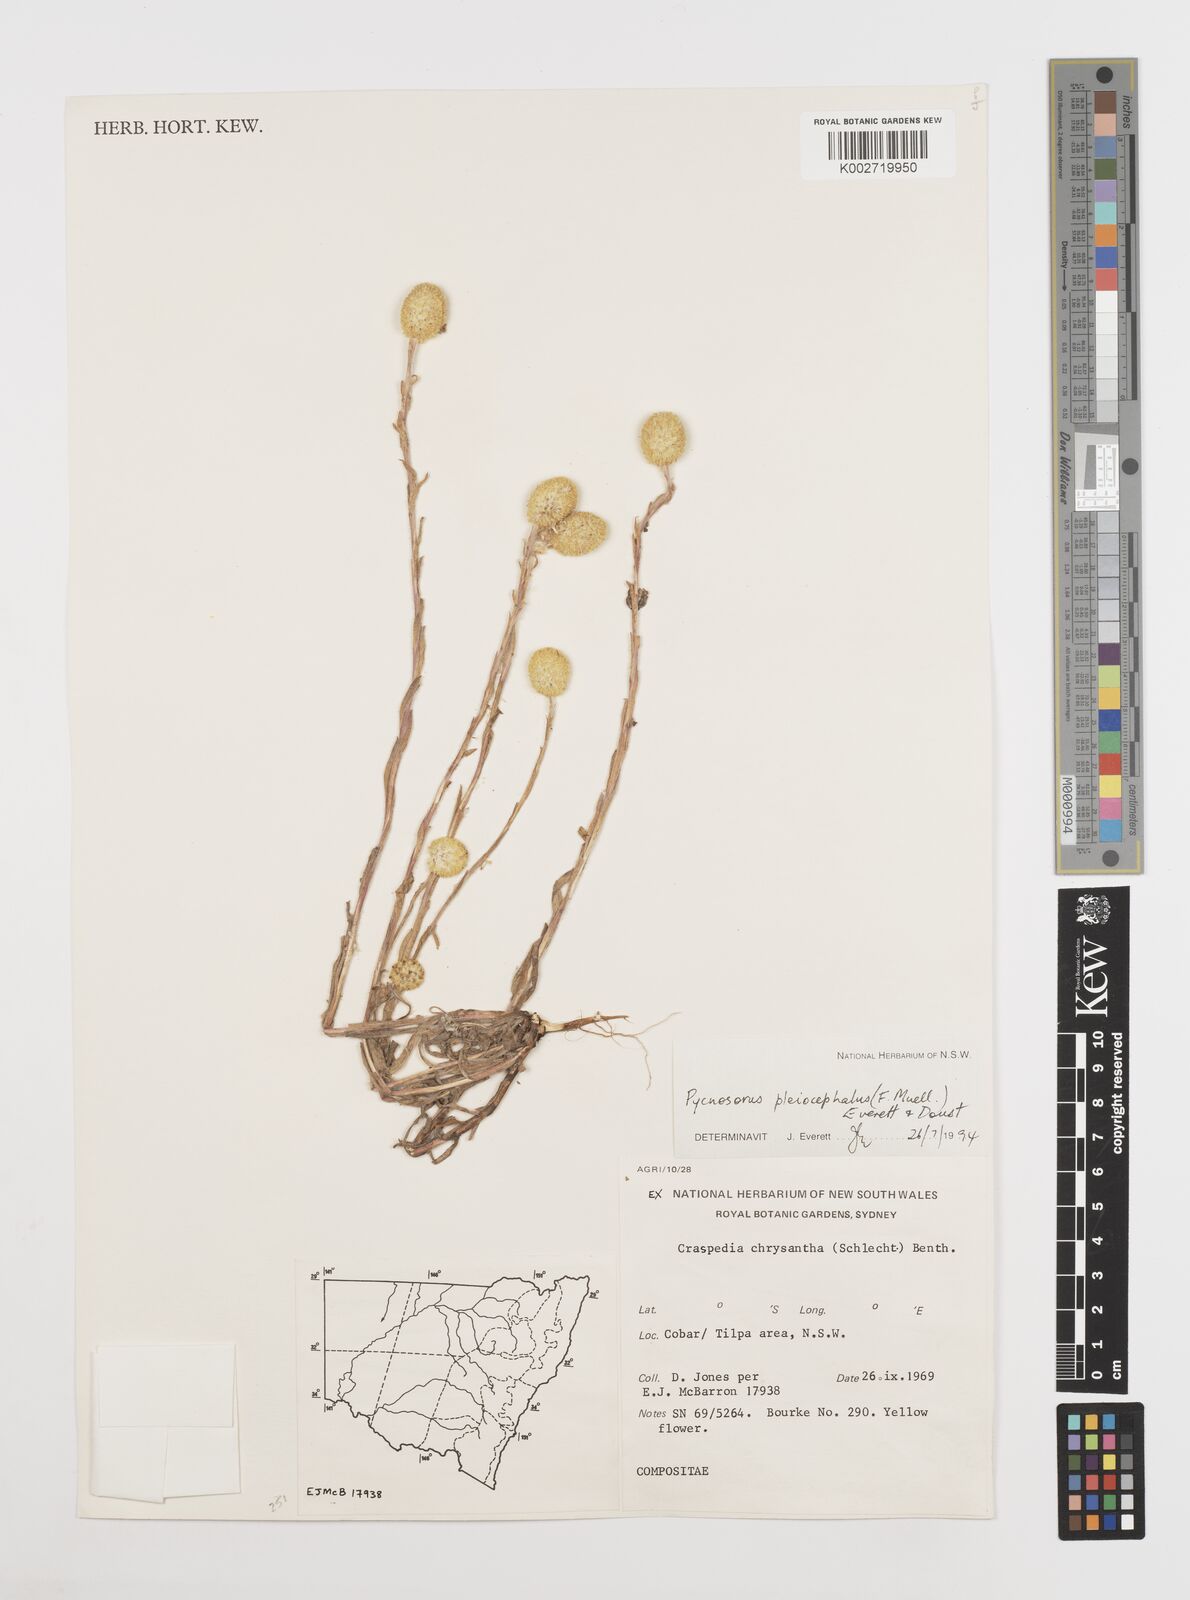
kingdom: Plantae
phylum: Tracheophyta
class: Magnoliopsida
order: Asterales
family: Asteraceae
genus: Pycnosorus
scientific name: Pycnosorus pleiocephalus
